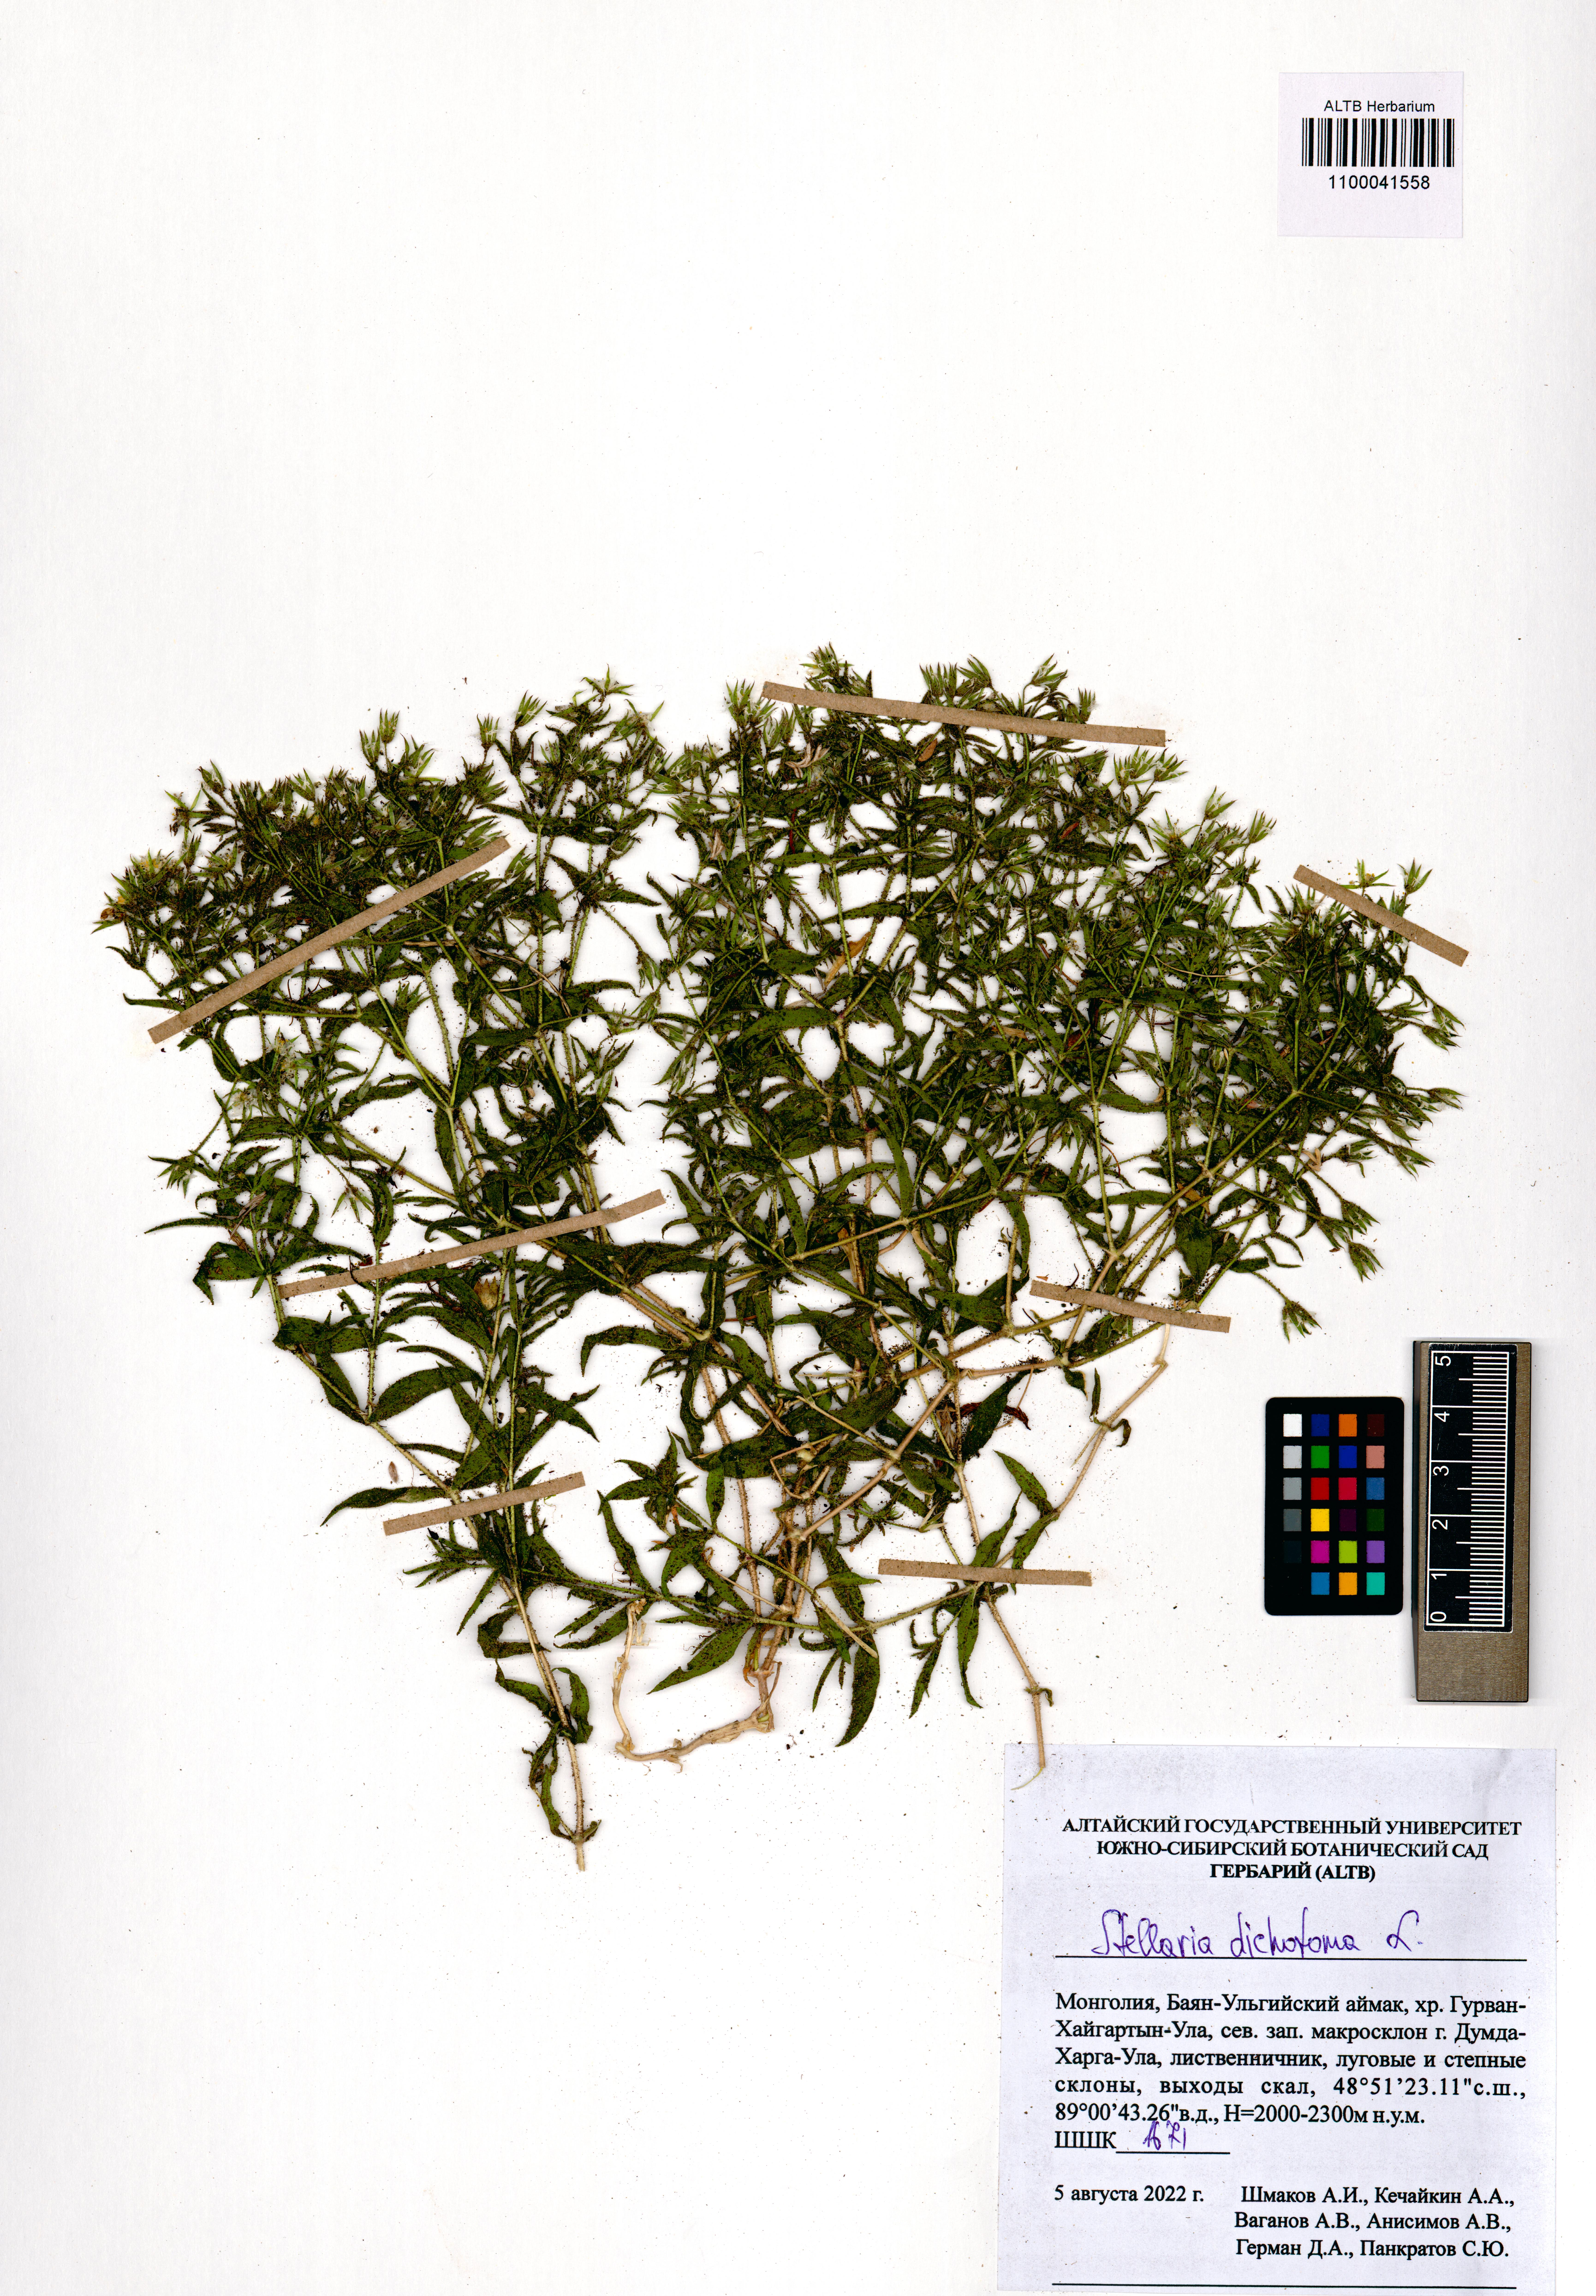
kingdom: Plantae
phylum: Tracheophyta
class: Magnoliopsida
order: Caryophyllales
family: Caryophyllaceae
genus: Mesostemma
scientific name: Mesostemma dichotomum
